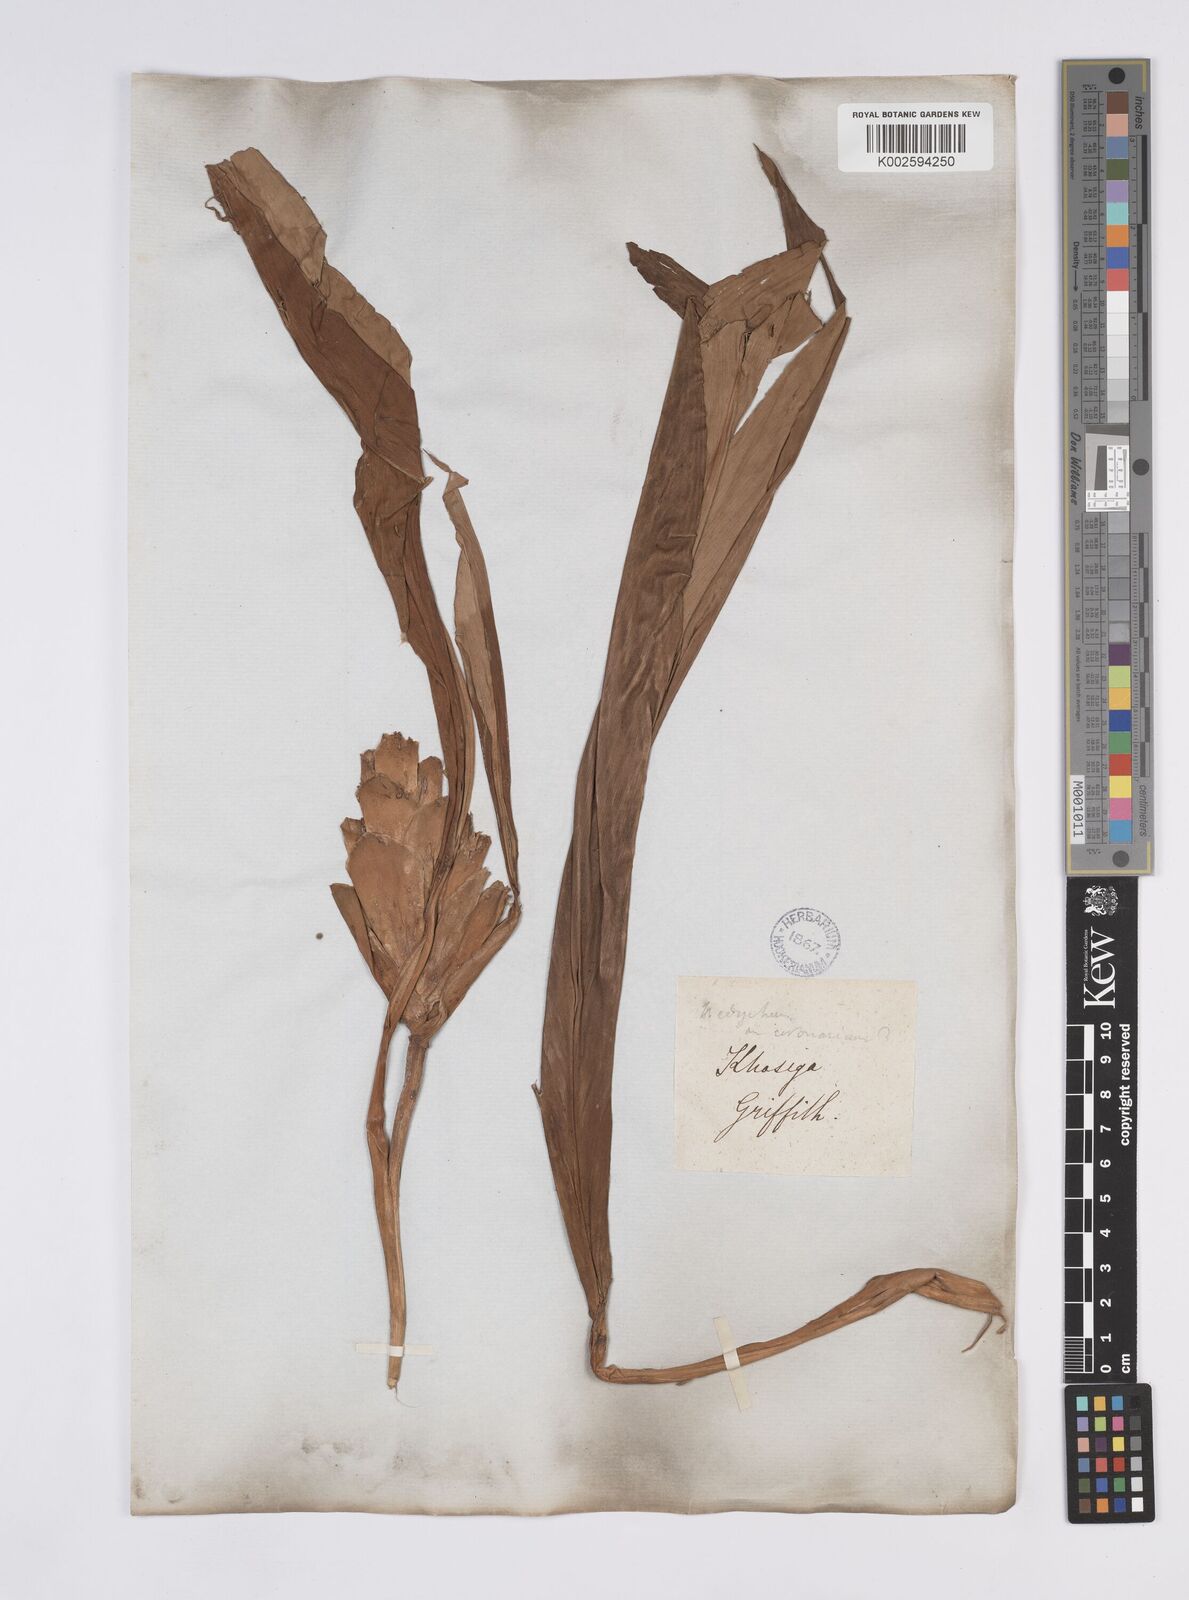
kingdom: Plantae
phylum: Tracheophyta
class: Liliopsida
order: Zingiberales
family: Zingiberaceae
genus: Hedychium
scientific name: Hedychium coronarium
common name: White garland-lily
